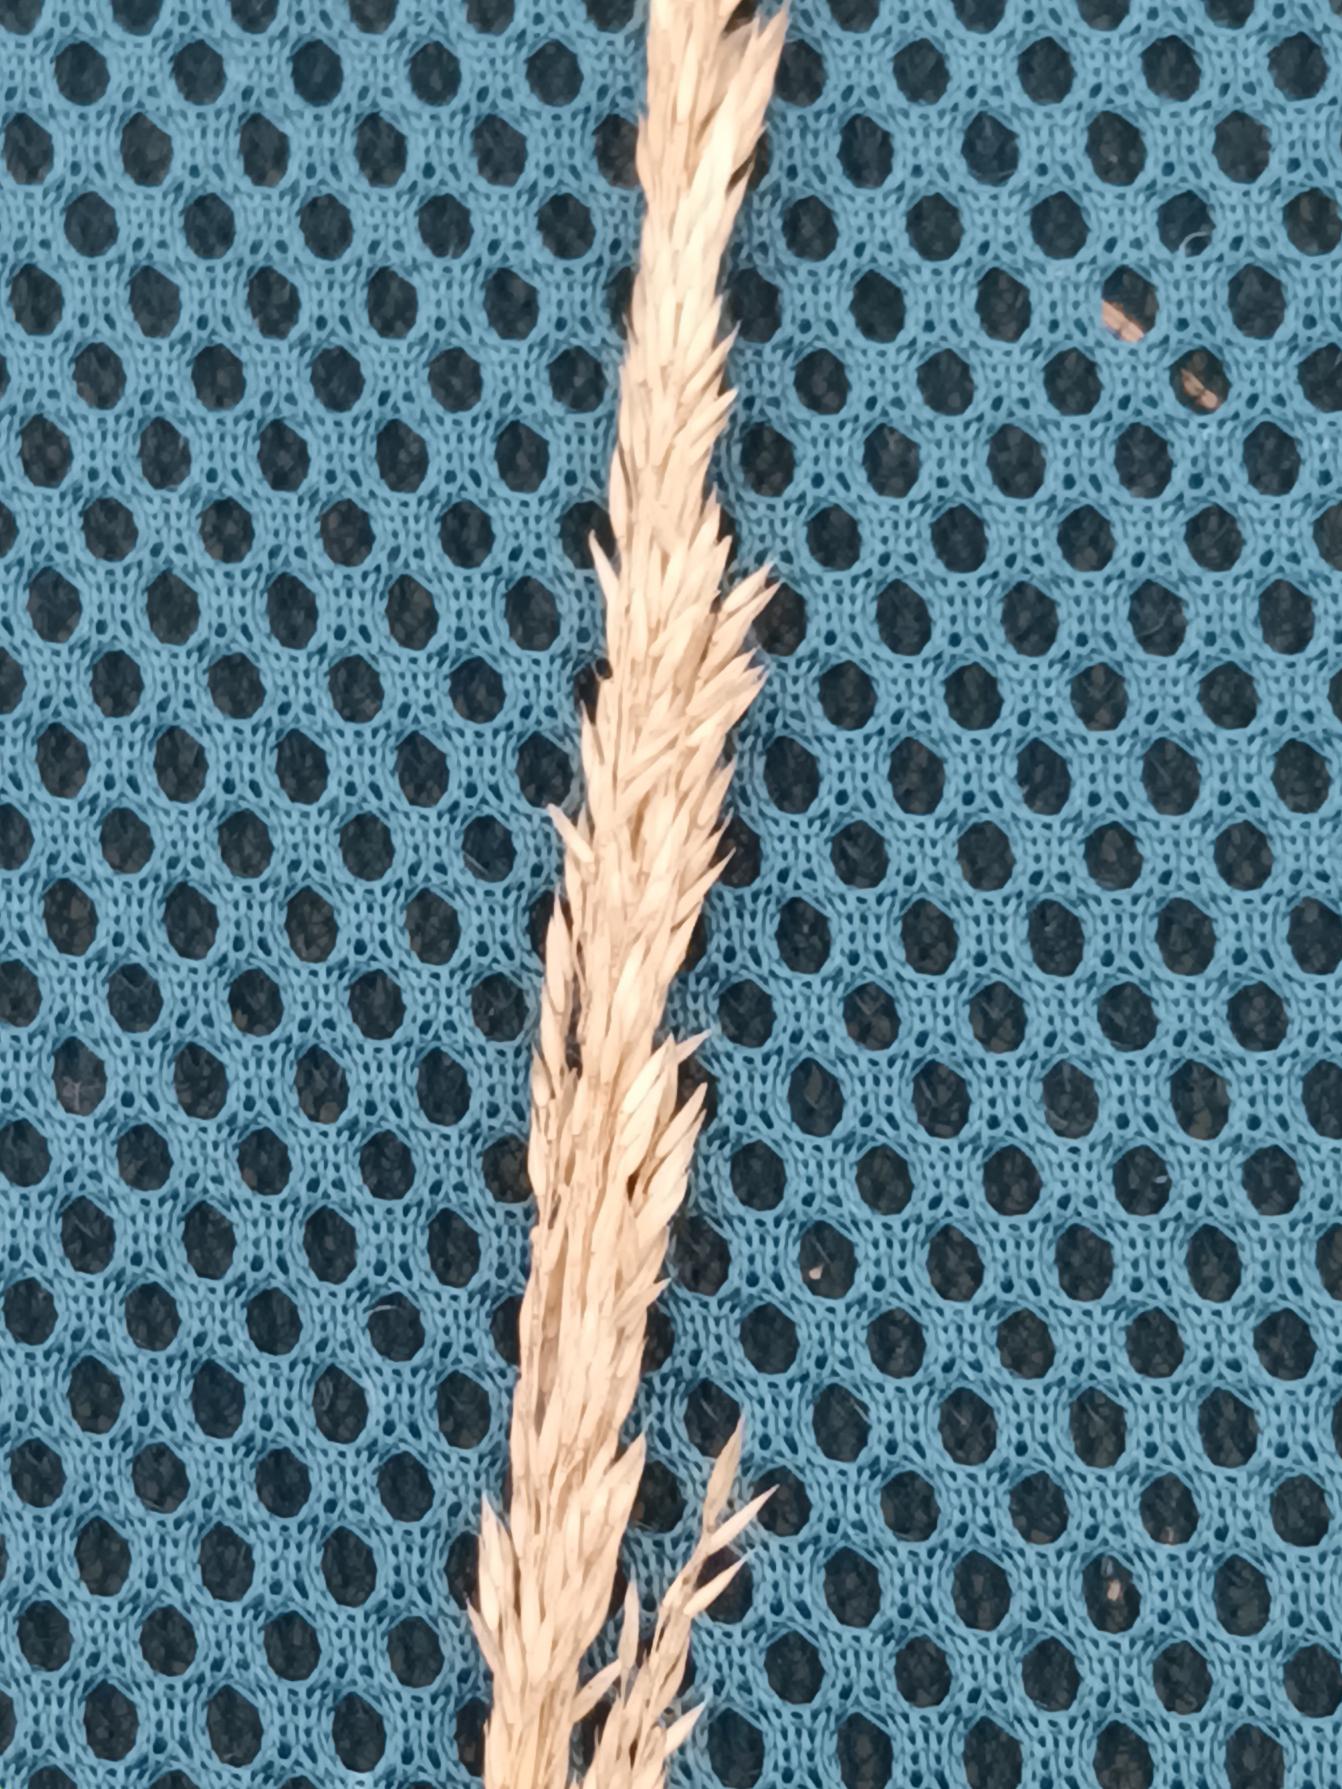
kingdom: Plantae
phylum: Tracheophyta
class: Liliopsida
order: Poales
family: Poaceae
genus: Agrostis
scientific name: Agrostis stolonifera
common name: Kryb-hvene
